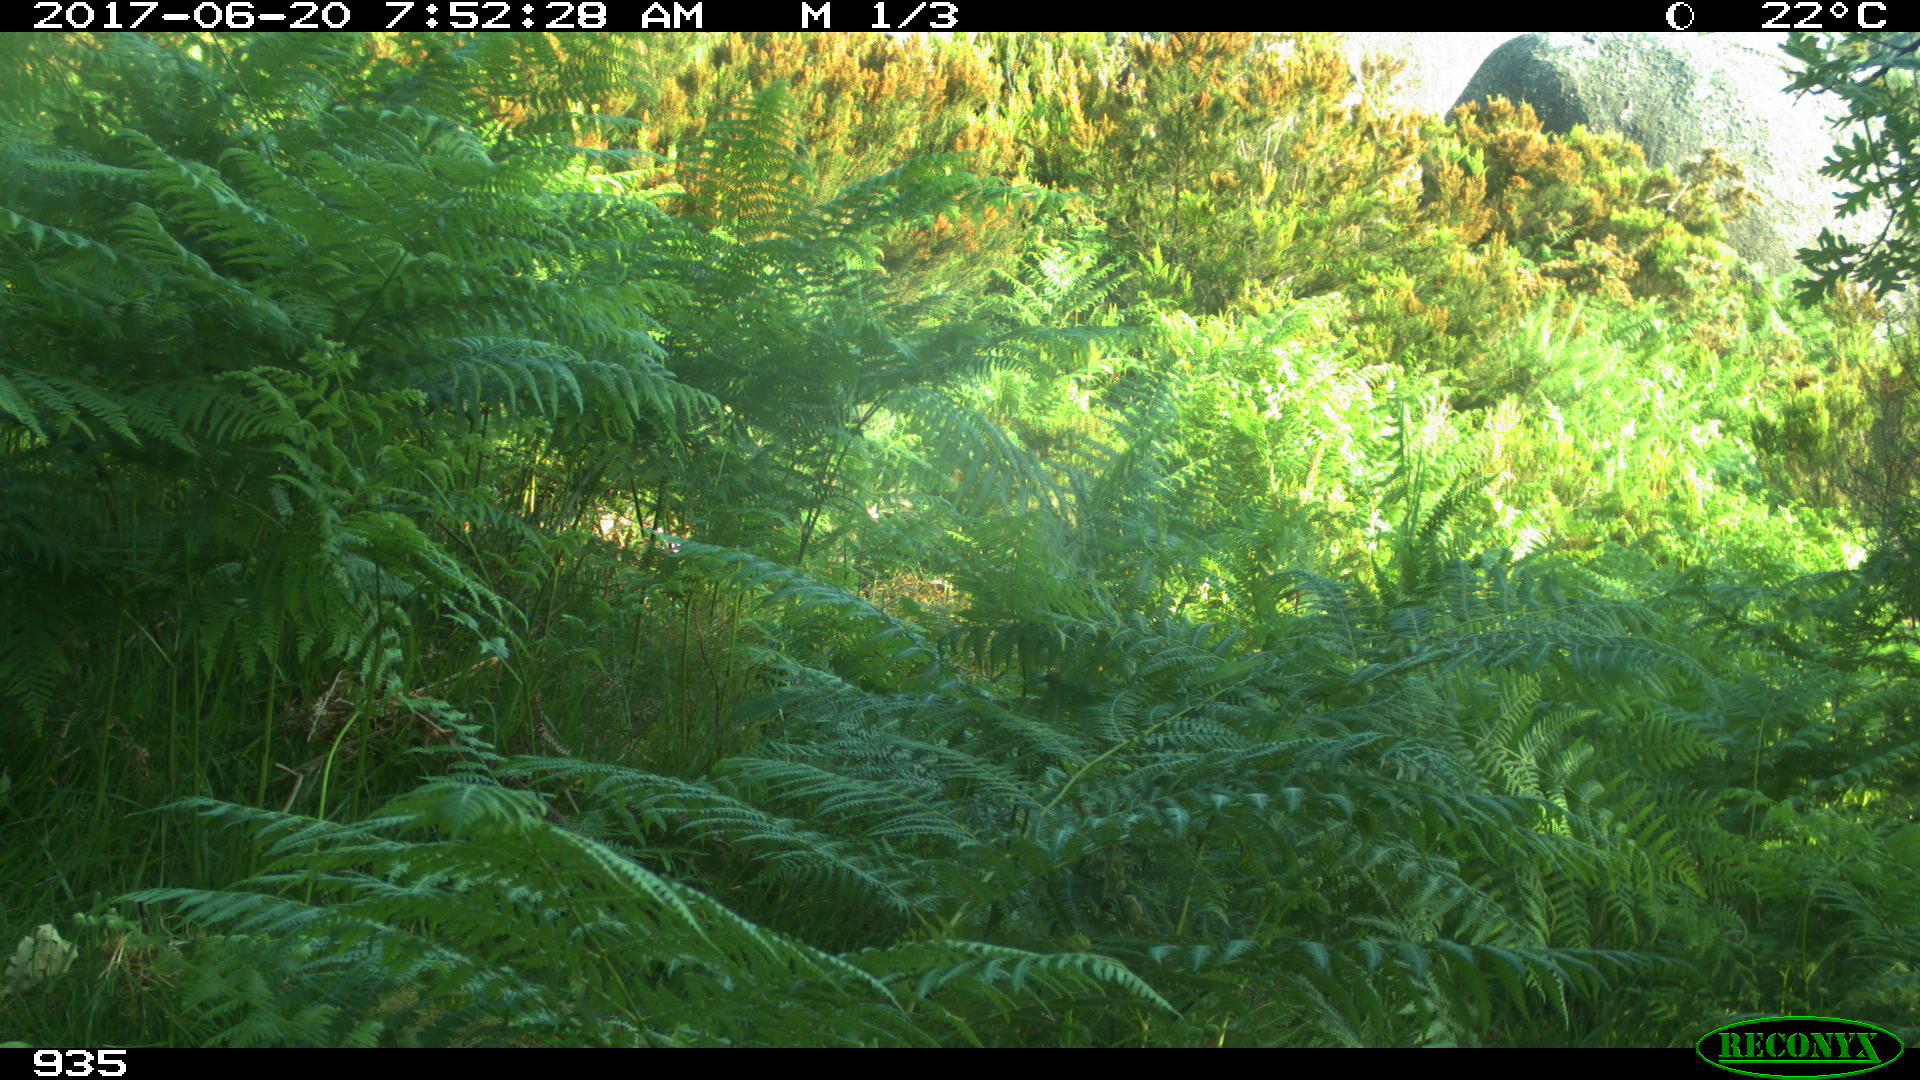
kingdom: Animalia
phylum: Chordata
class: Mammalia
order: Artiodactyla
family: Bovidae
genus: Bos
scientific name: Bos taurus
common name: Domesticated cattle
